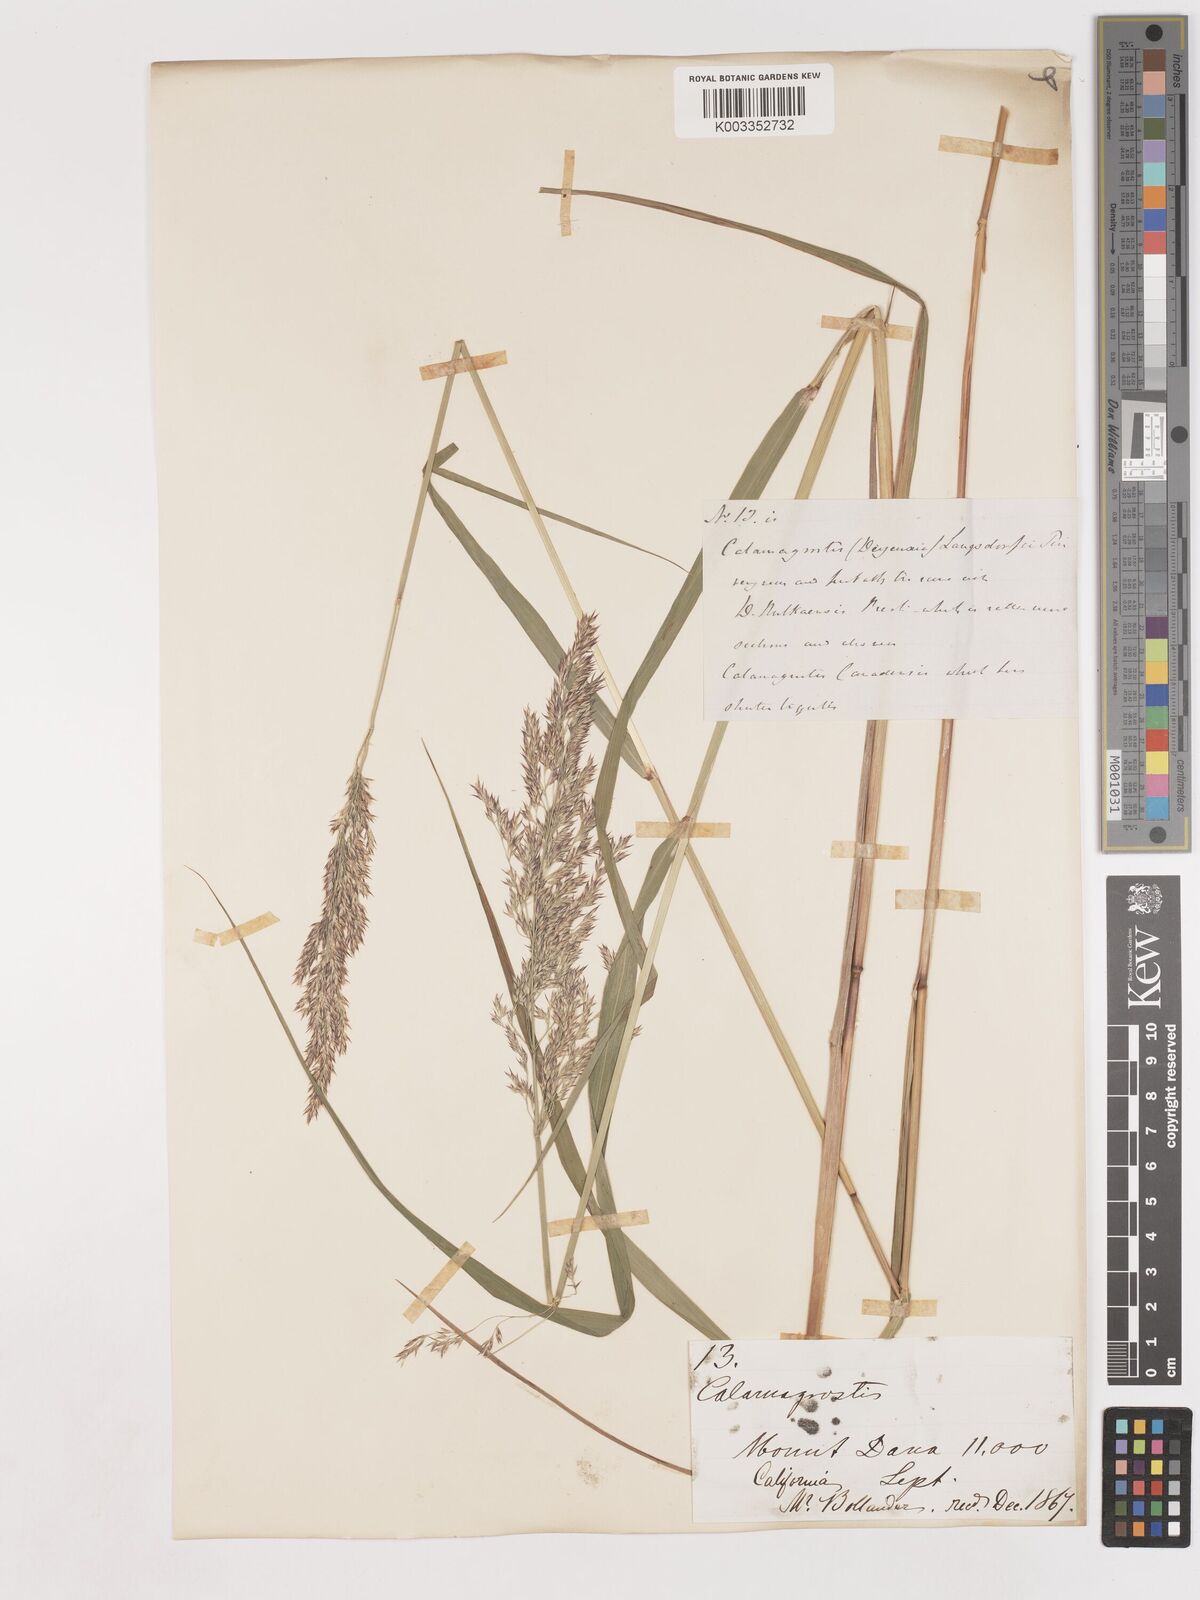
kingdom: Plantae
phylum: Tracheophyta
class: Liliopsida
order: Poales
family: Poaceae
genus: Calamagrostis
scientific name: Calamagrostis canadensis
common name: Canada bluejoint
